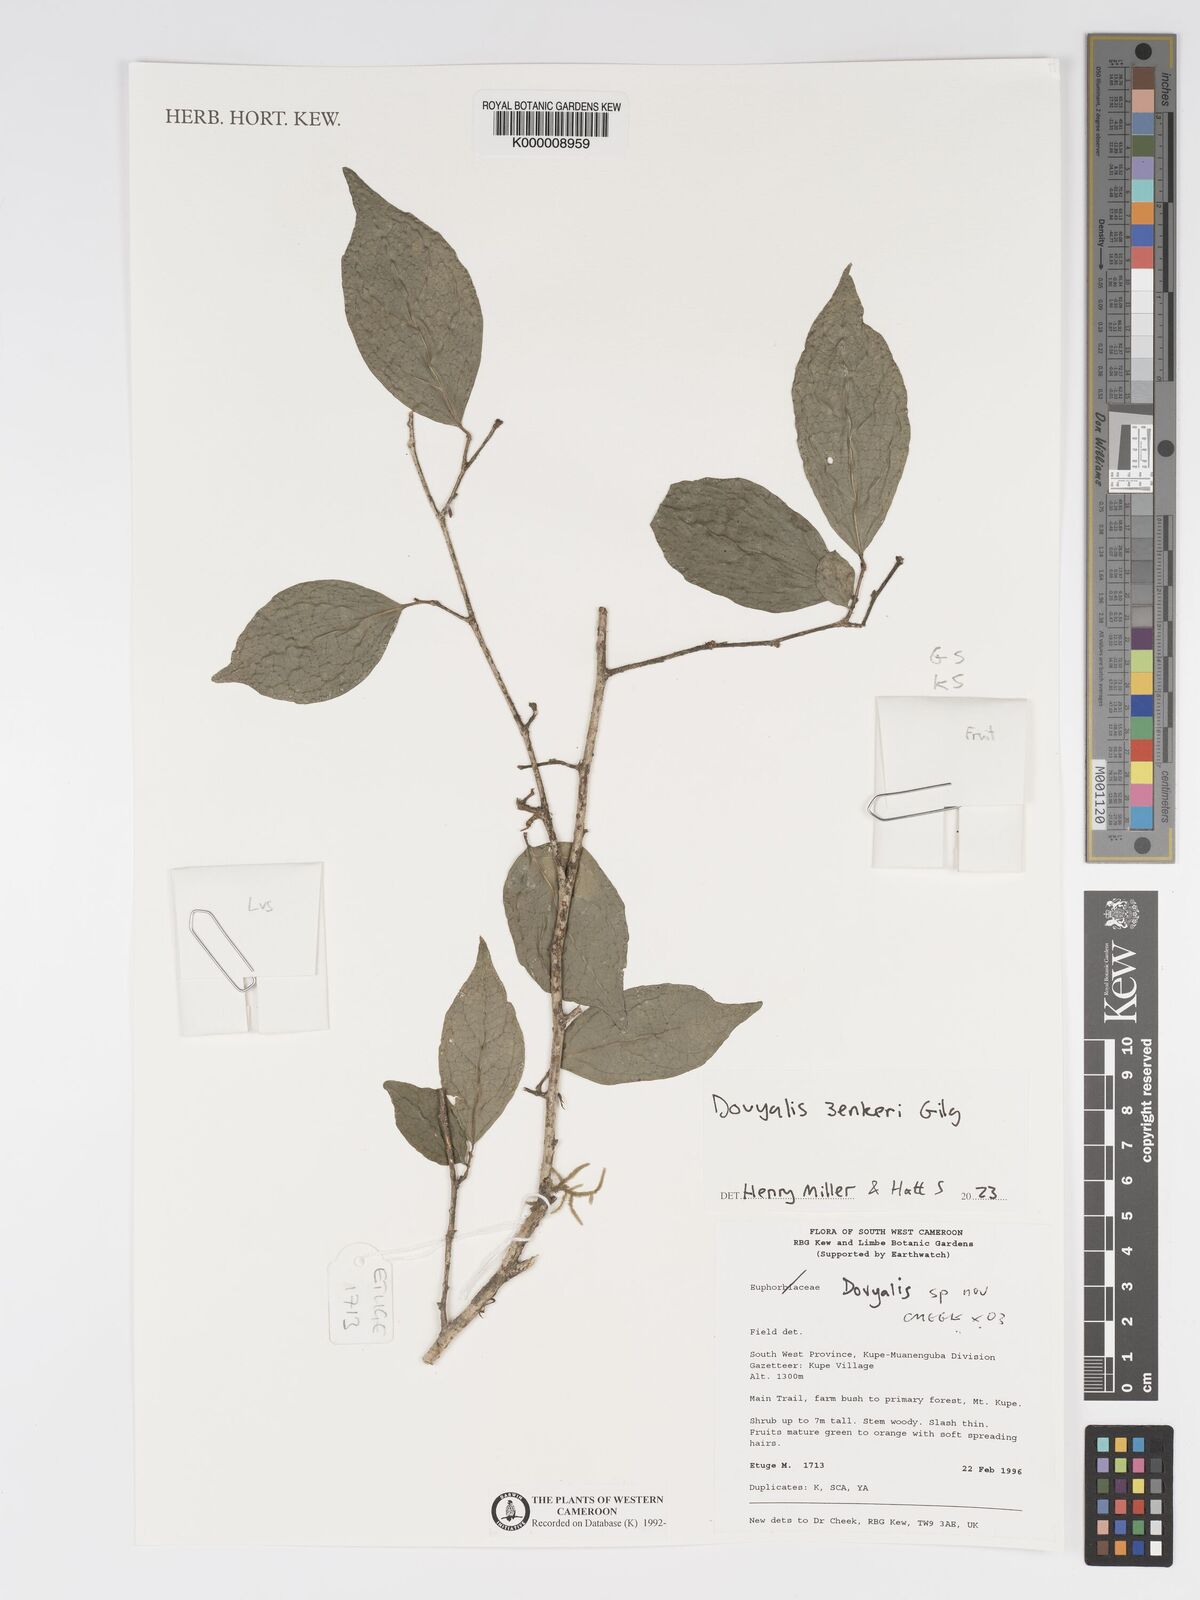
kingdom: Plantae
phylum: Tracheophyta
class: Magnoliopsida
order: Malpighiales
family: Salicaceae
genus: Dovyalis
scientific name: Dovyalis
